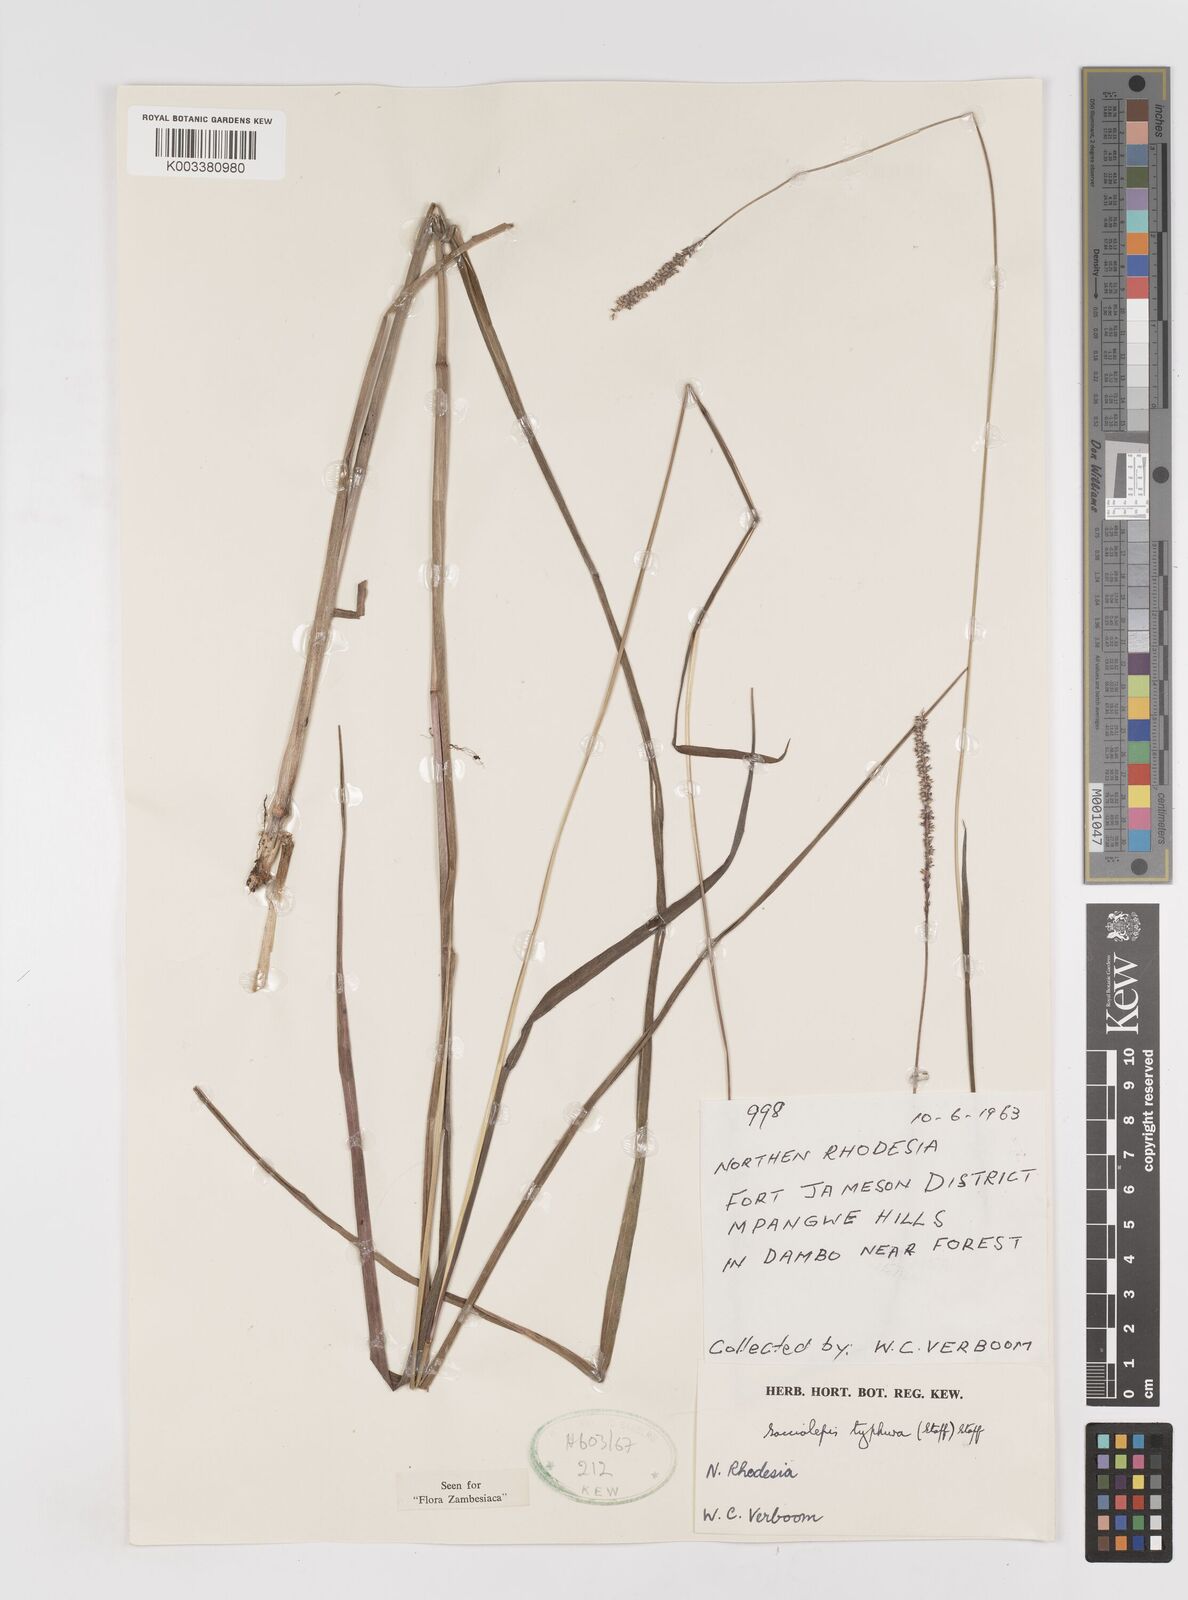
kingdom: Plantae
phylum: Tracheophyta
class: Liliopsida
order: Poales
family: Poaceae
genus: Sacciolepis
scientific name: Sacciolepis typhura
